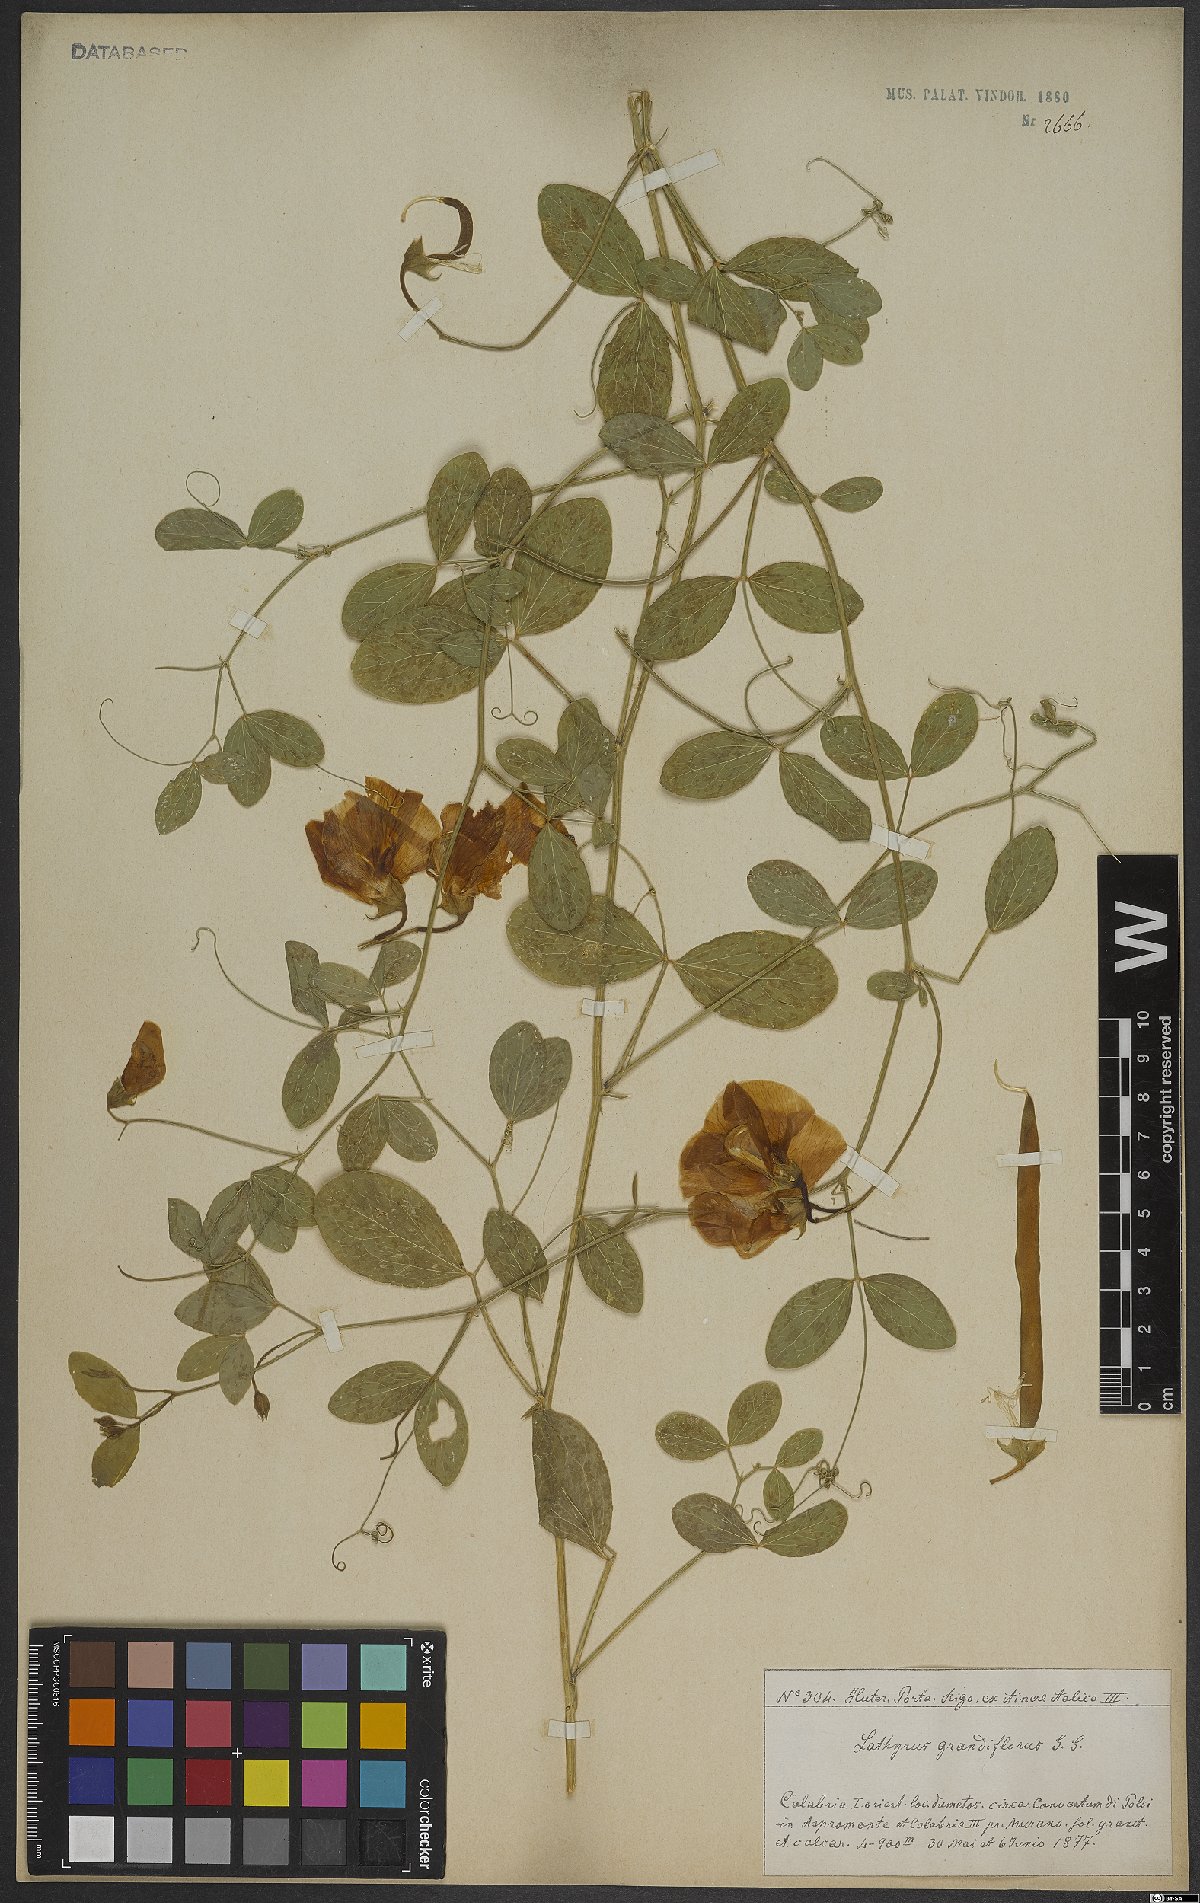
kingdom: Plantae
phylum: Tracheophyta
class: Magnoliopsida
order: Fabales
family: Fabaceae
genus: Lathyrus
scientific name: Lathyrus grandiflorus
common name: Two-flowered everlasting-pea
